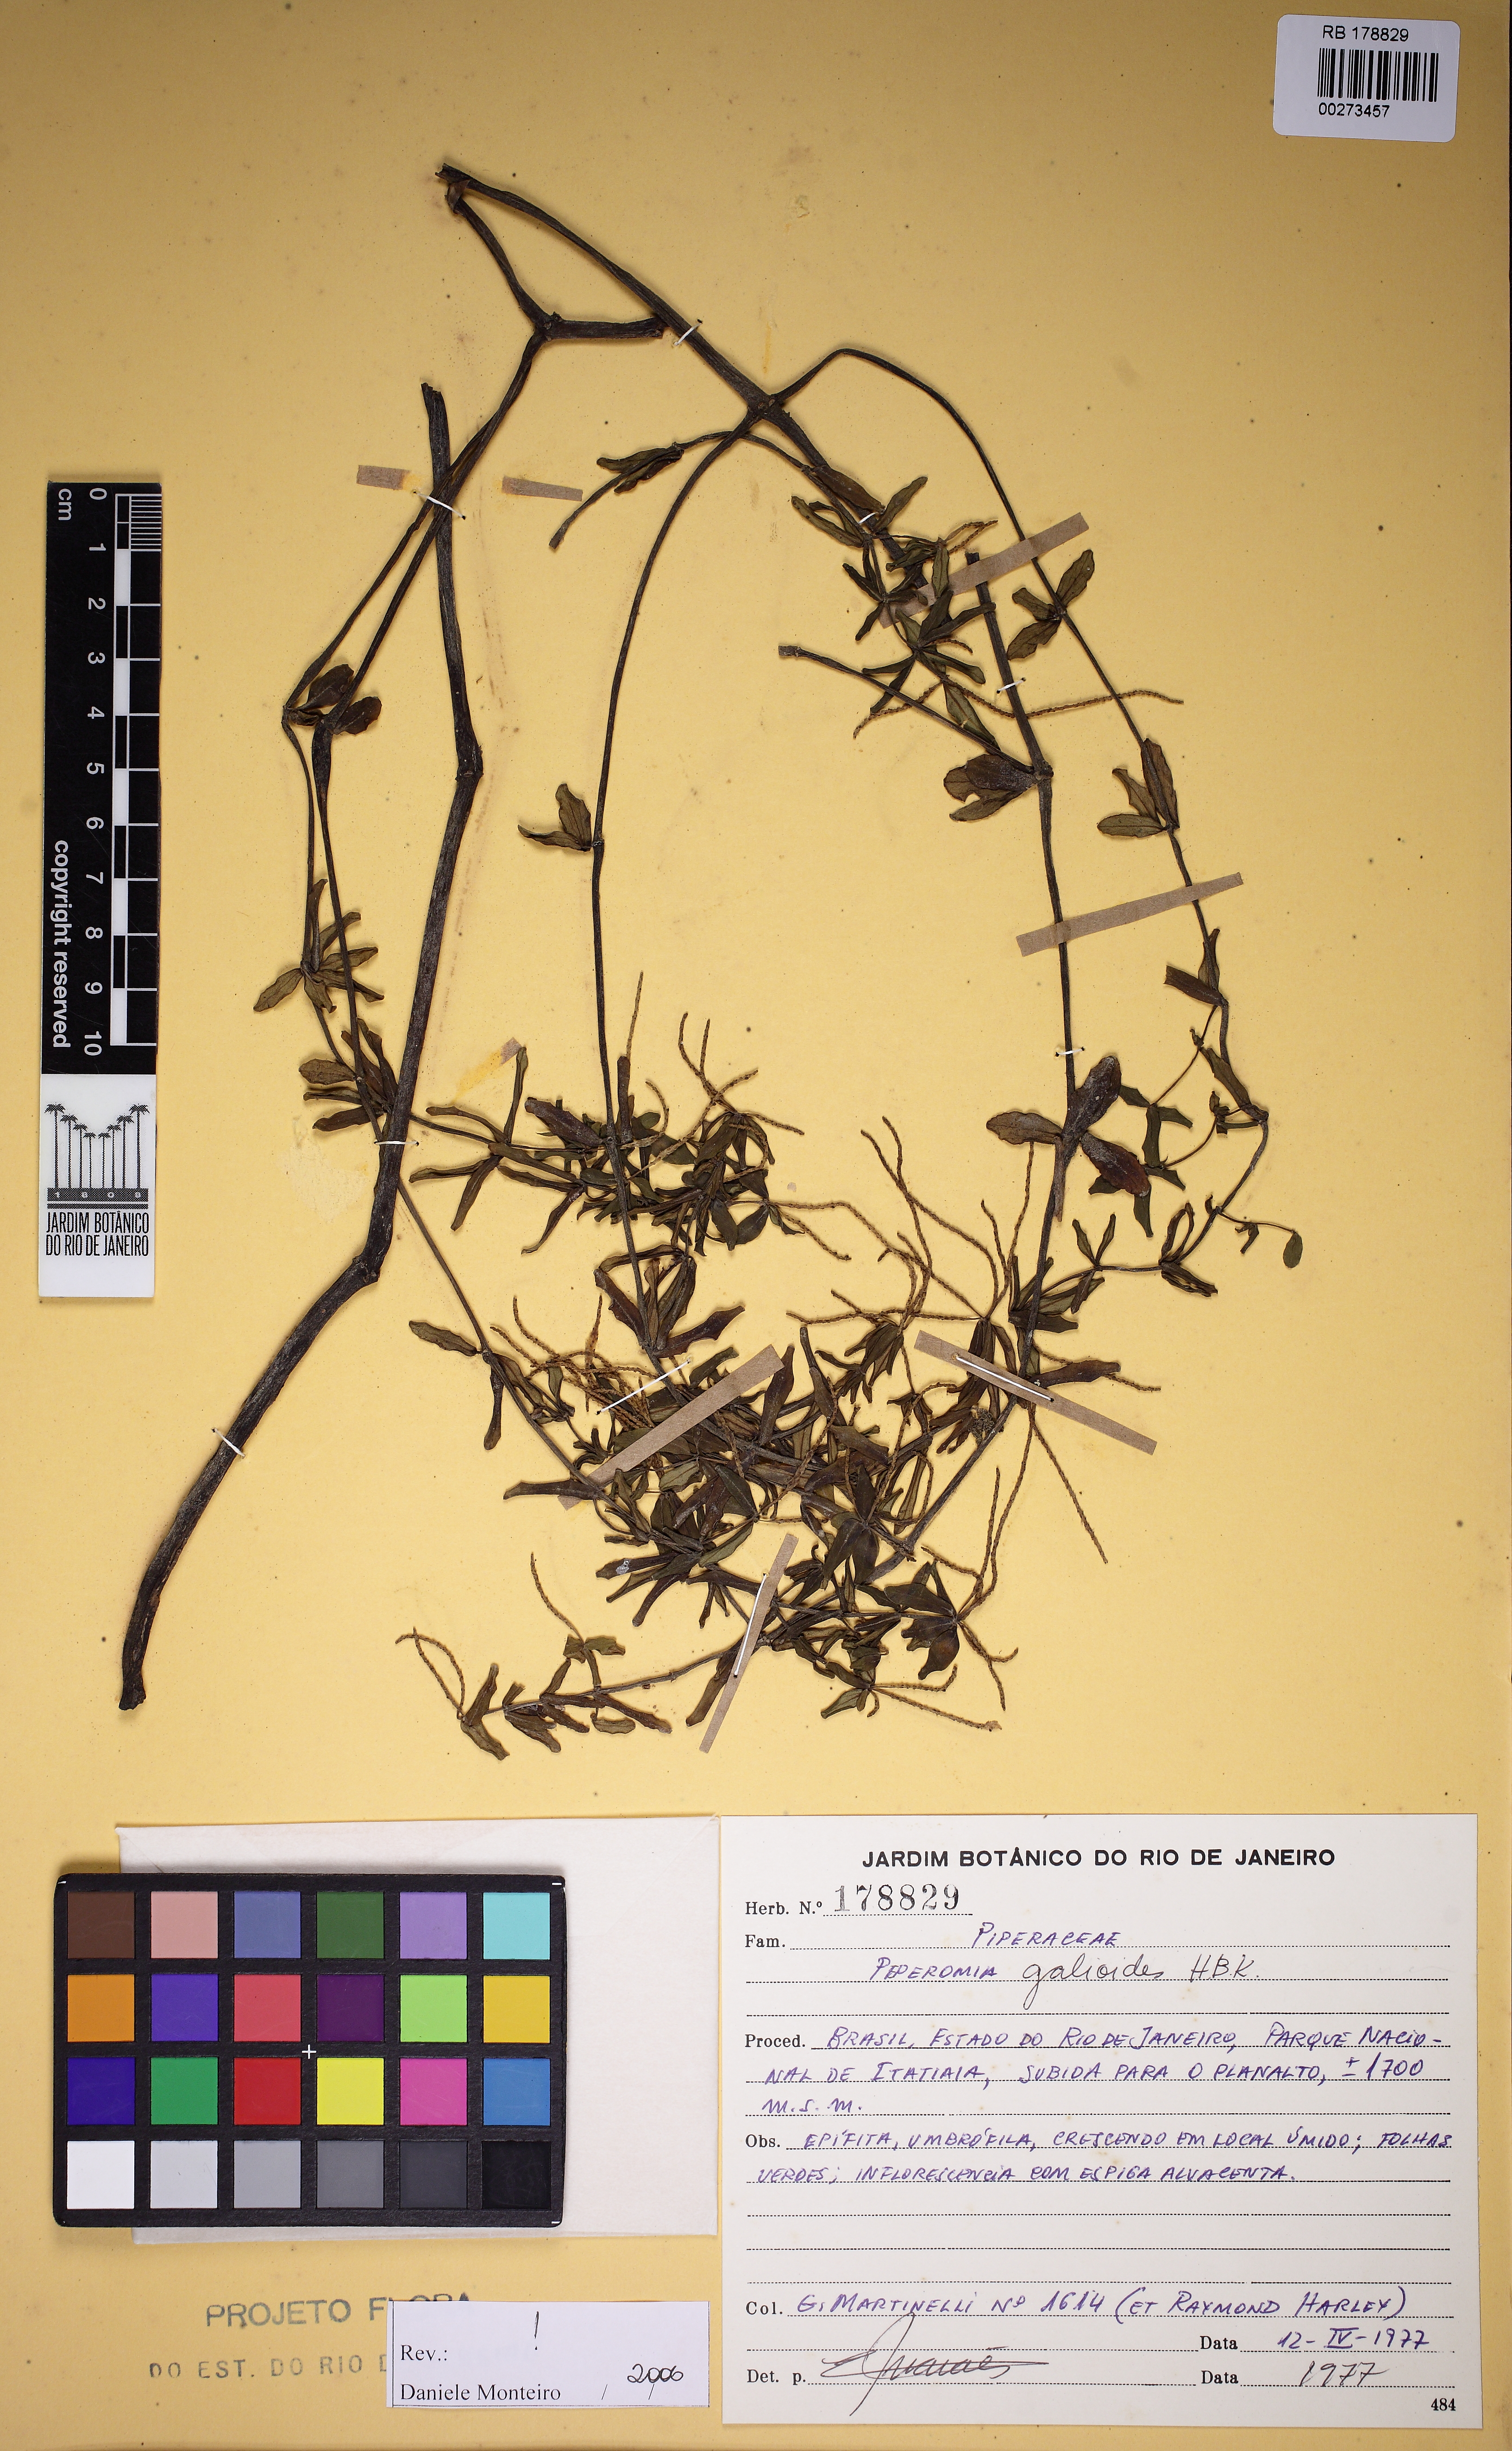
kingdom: Plantae
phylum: Tracheophyta
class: Magnoliopsida
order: Piperales
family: Piperaceae
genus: Peperomia
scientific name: Peperomia galioides
